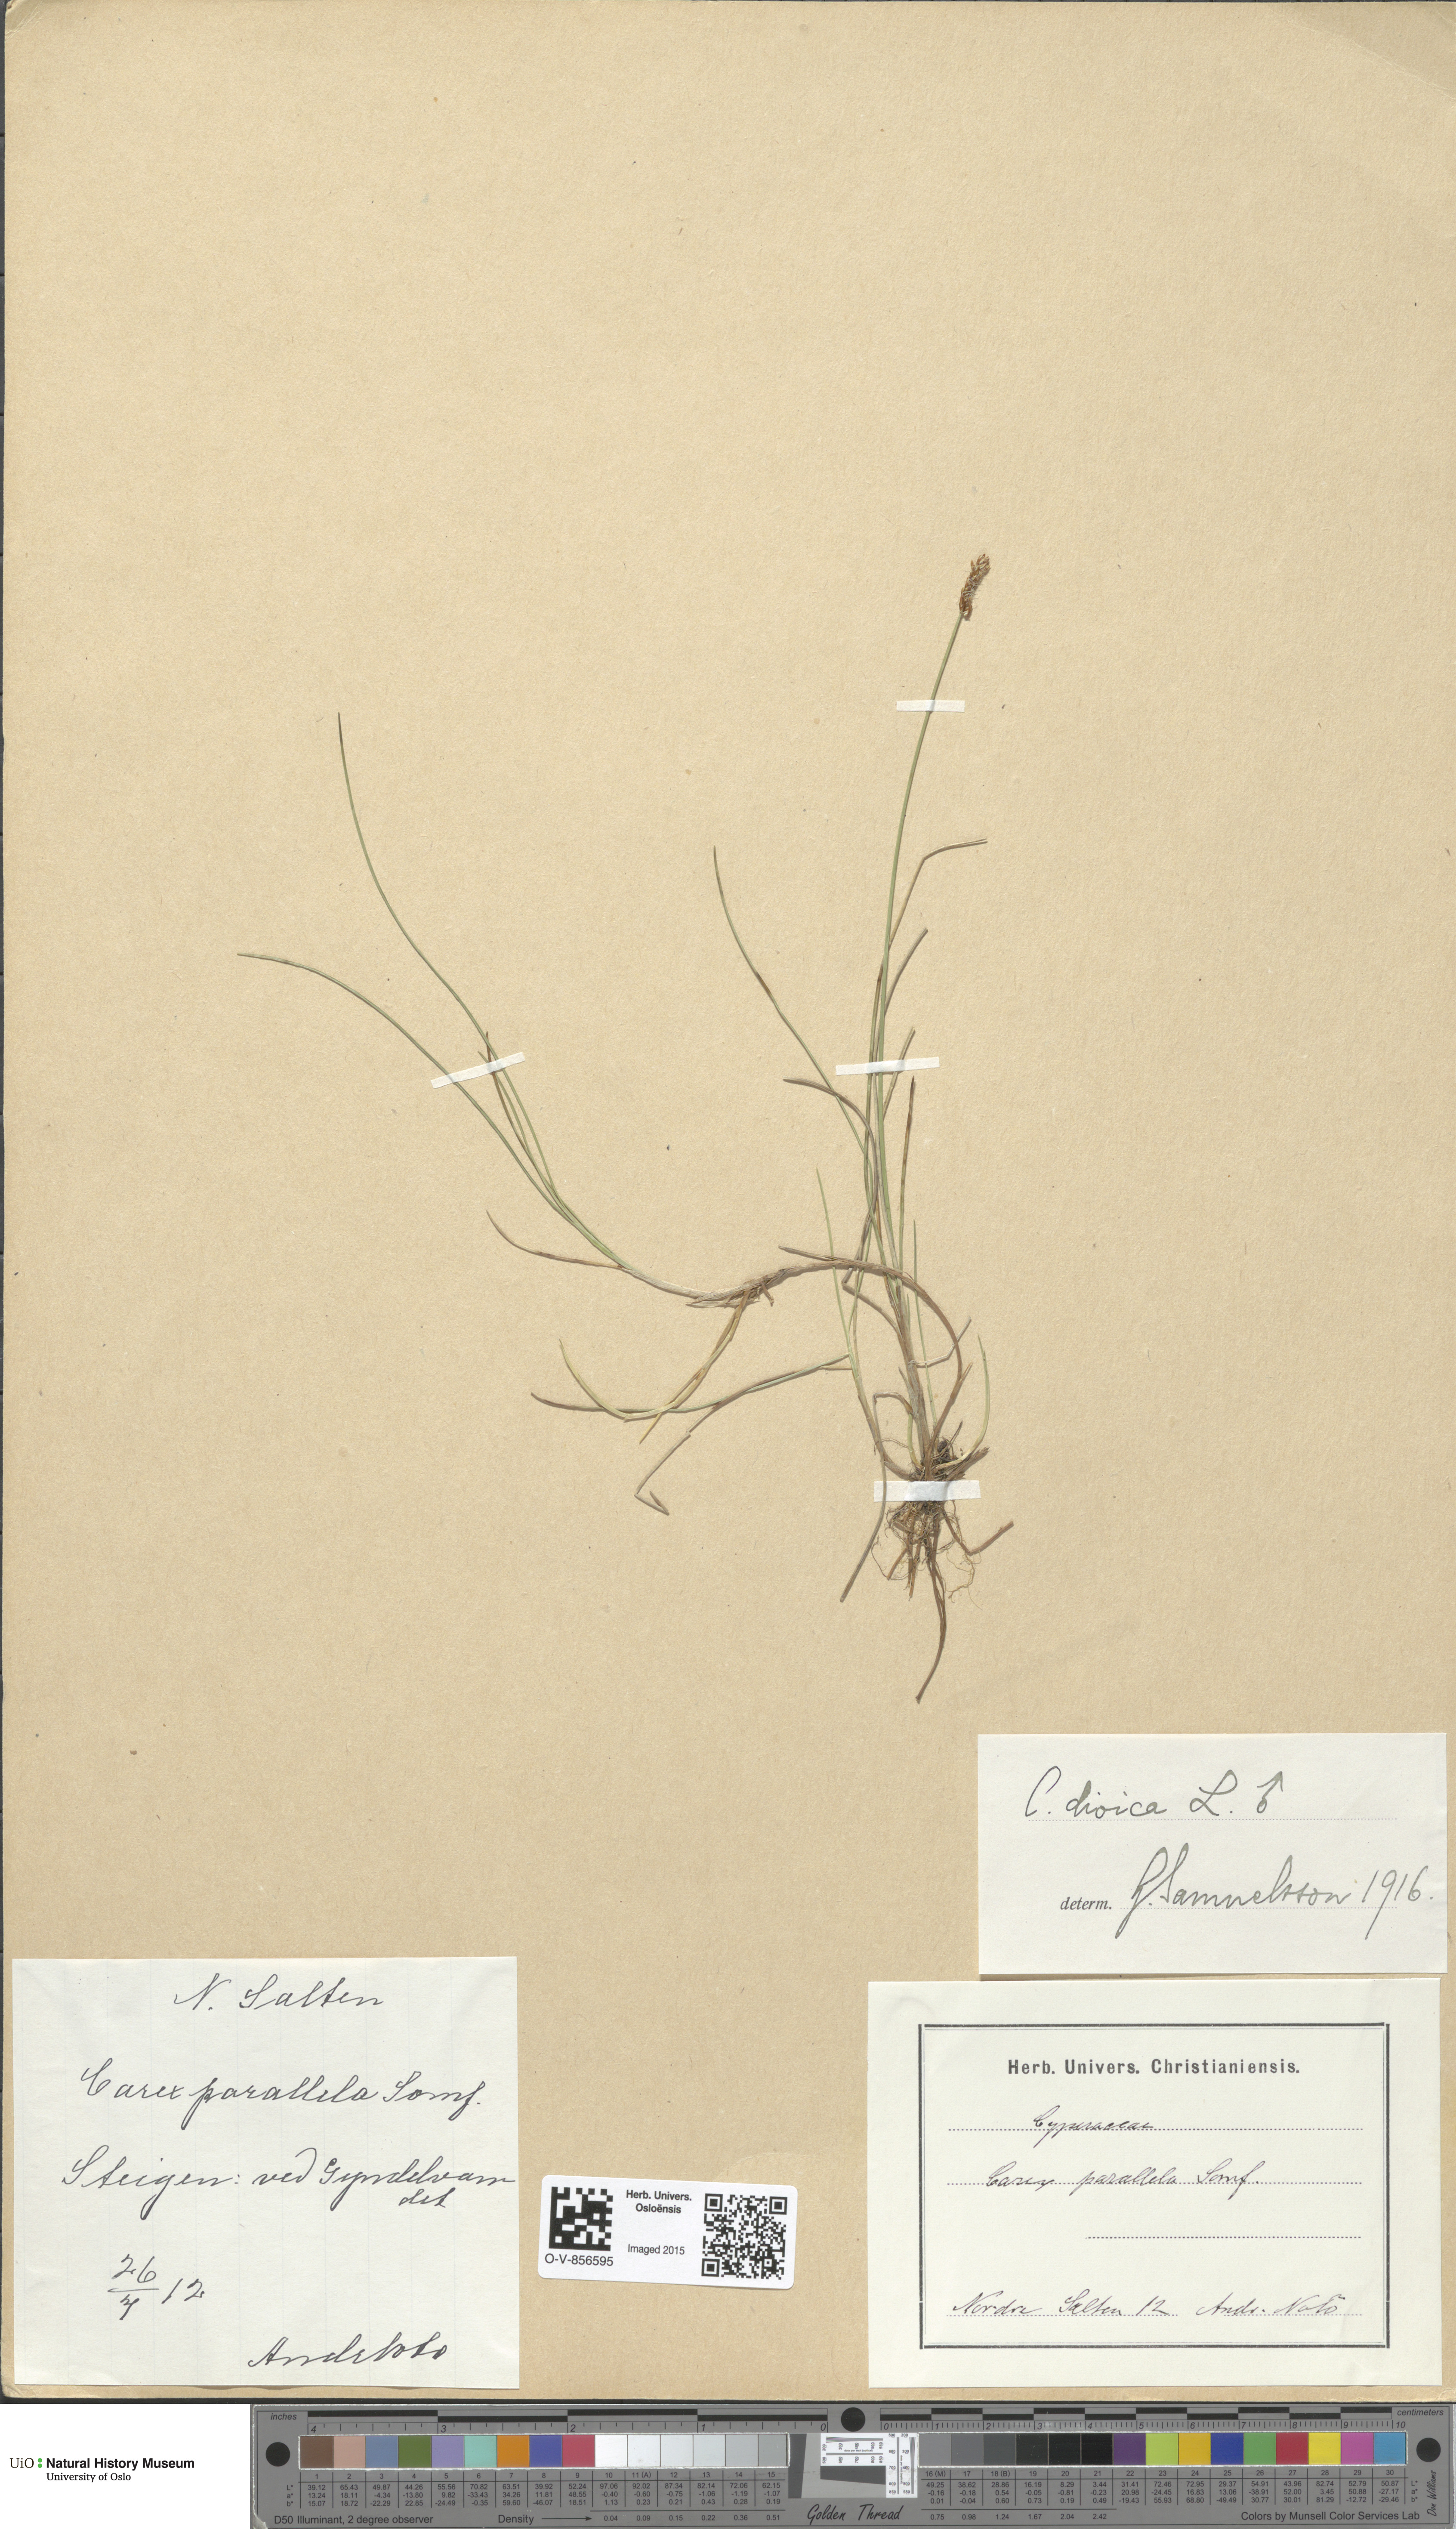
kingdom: Plantae
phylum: Tracheophyta
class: Liliopsida
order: Poales
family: Cyperaceae
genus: Carex
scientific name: Carex dioica
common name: Dioecious sedge
